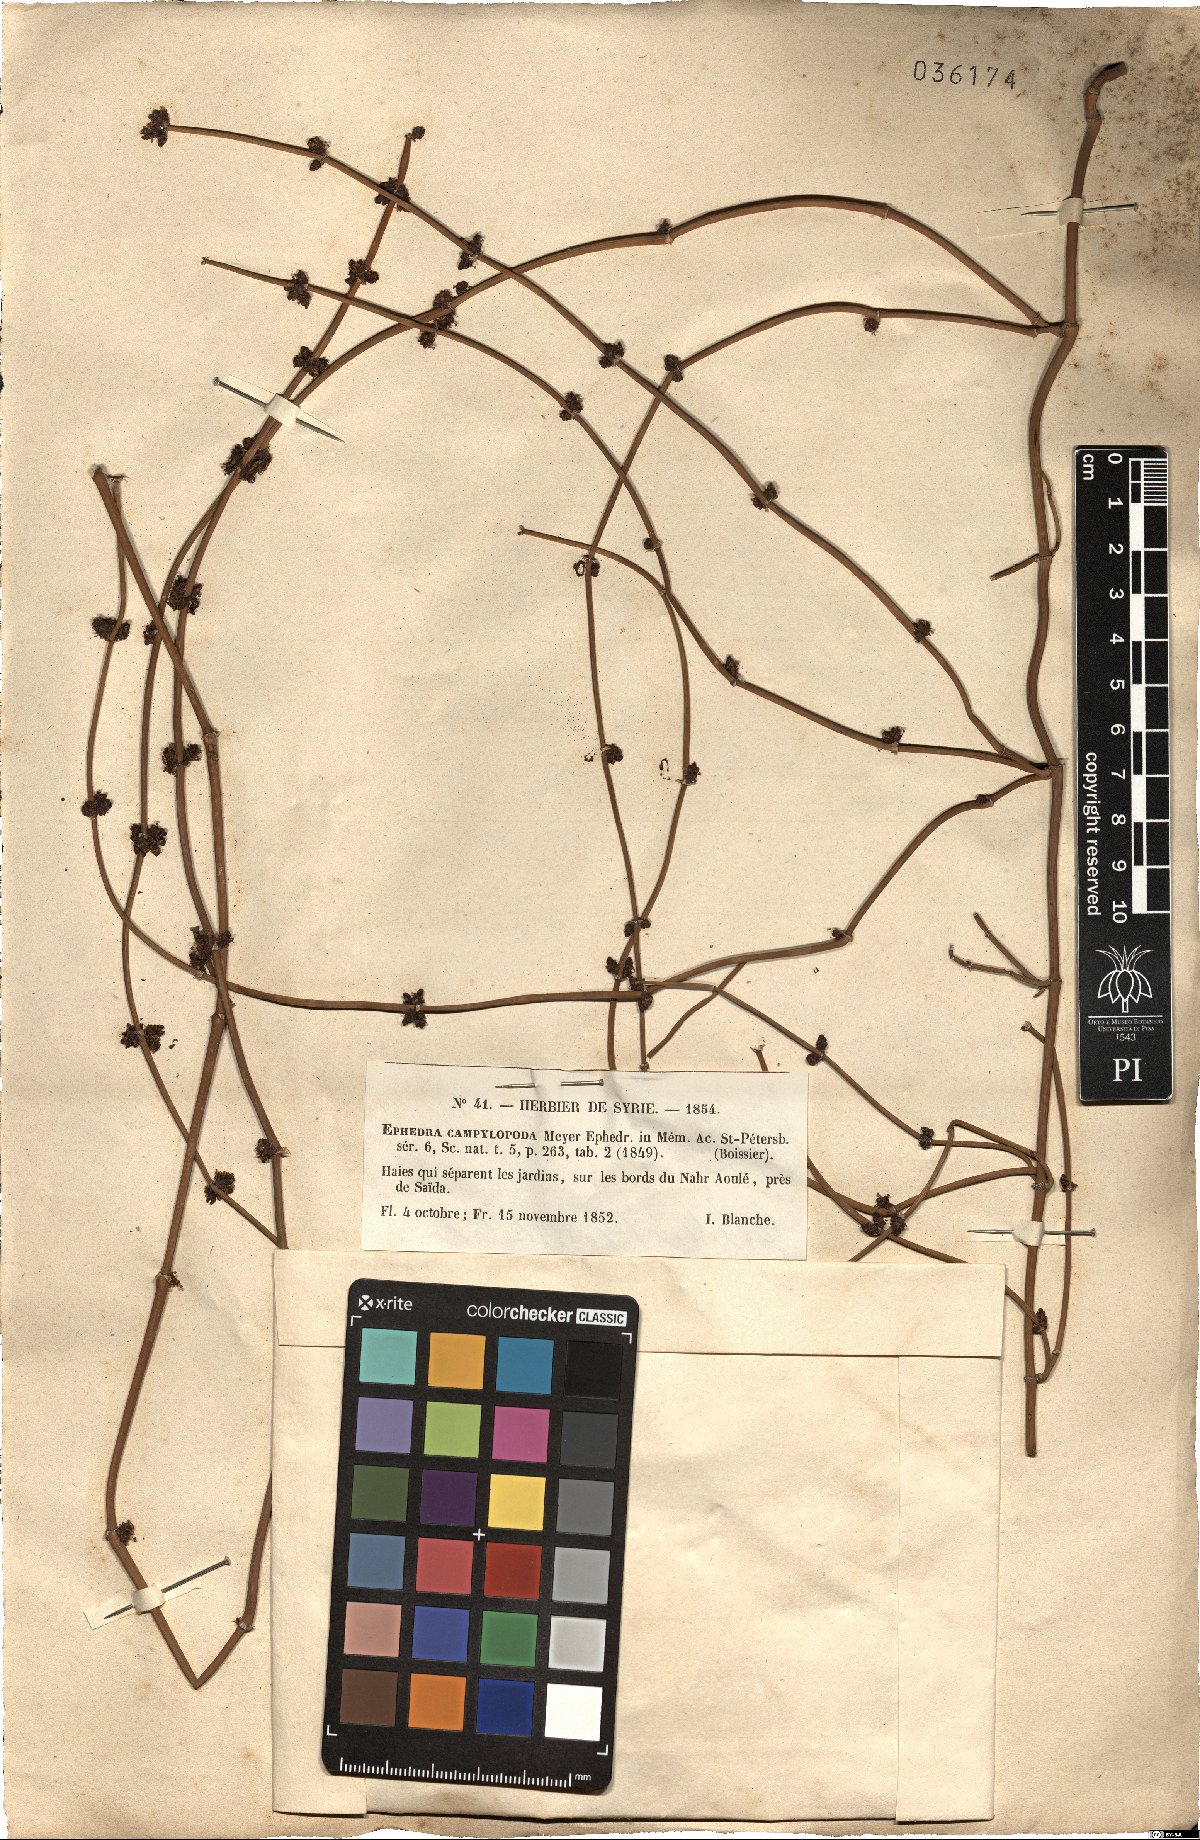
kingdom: Plantae
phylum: Tracheophyta
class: Gnetopsida
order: Ephedrales
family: Ephedraceae
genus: Ephedra
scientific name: Ephedra foeminea
